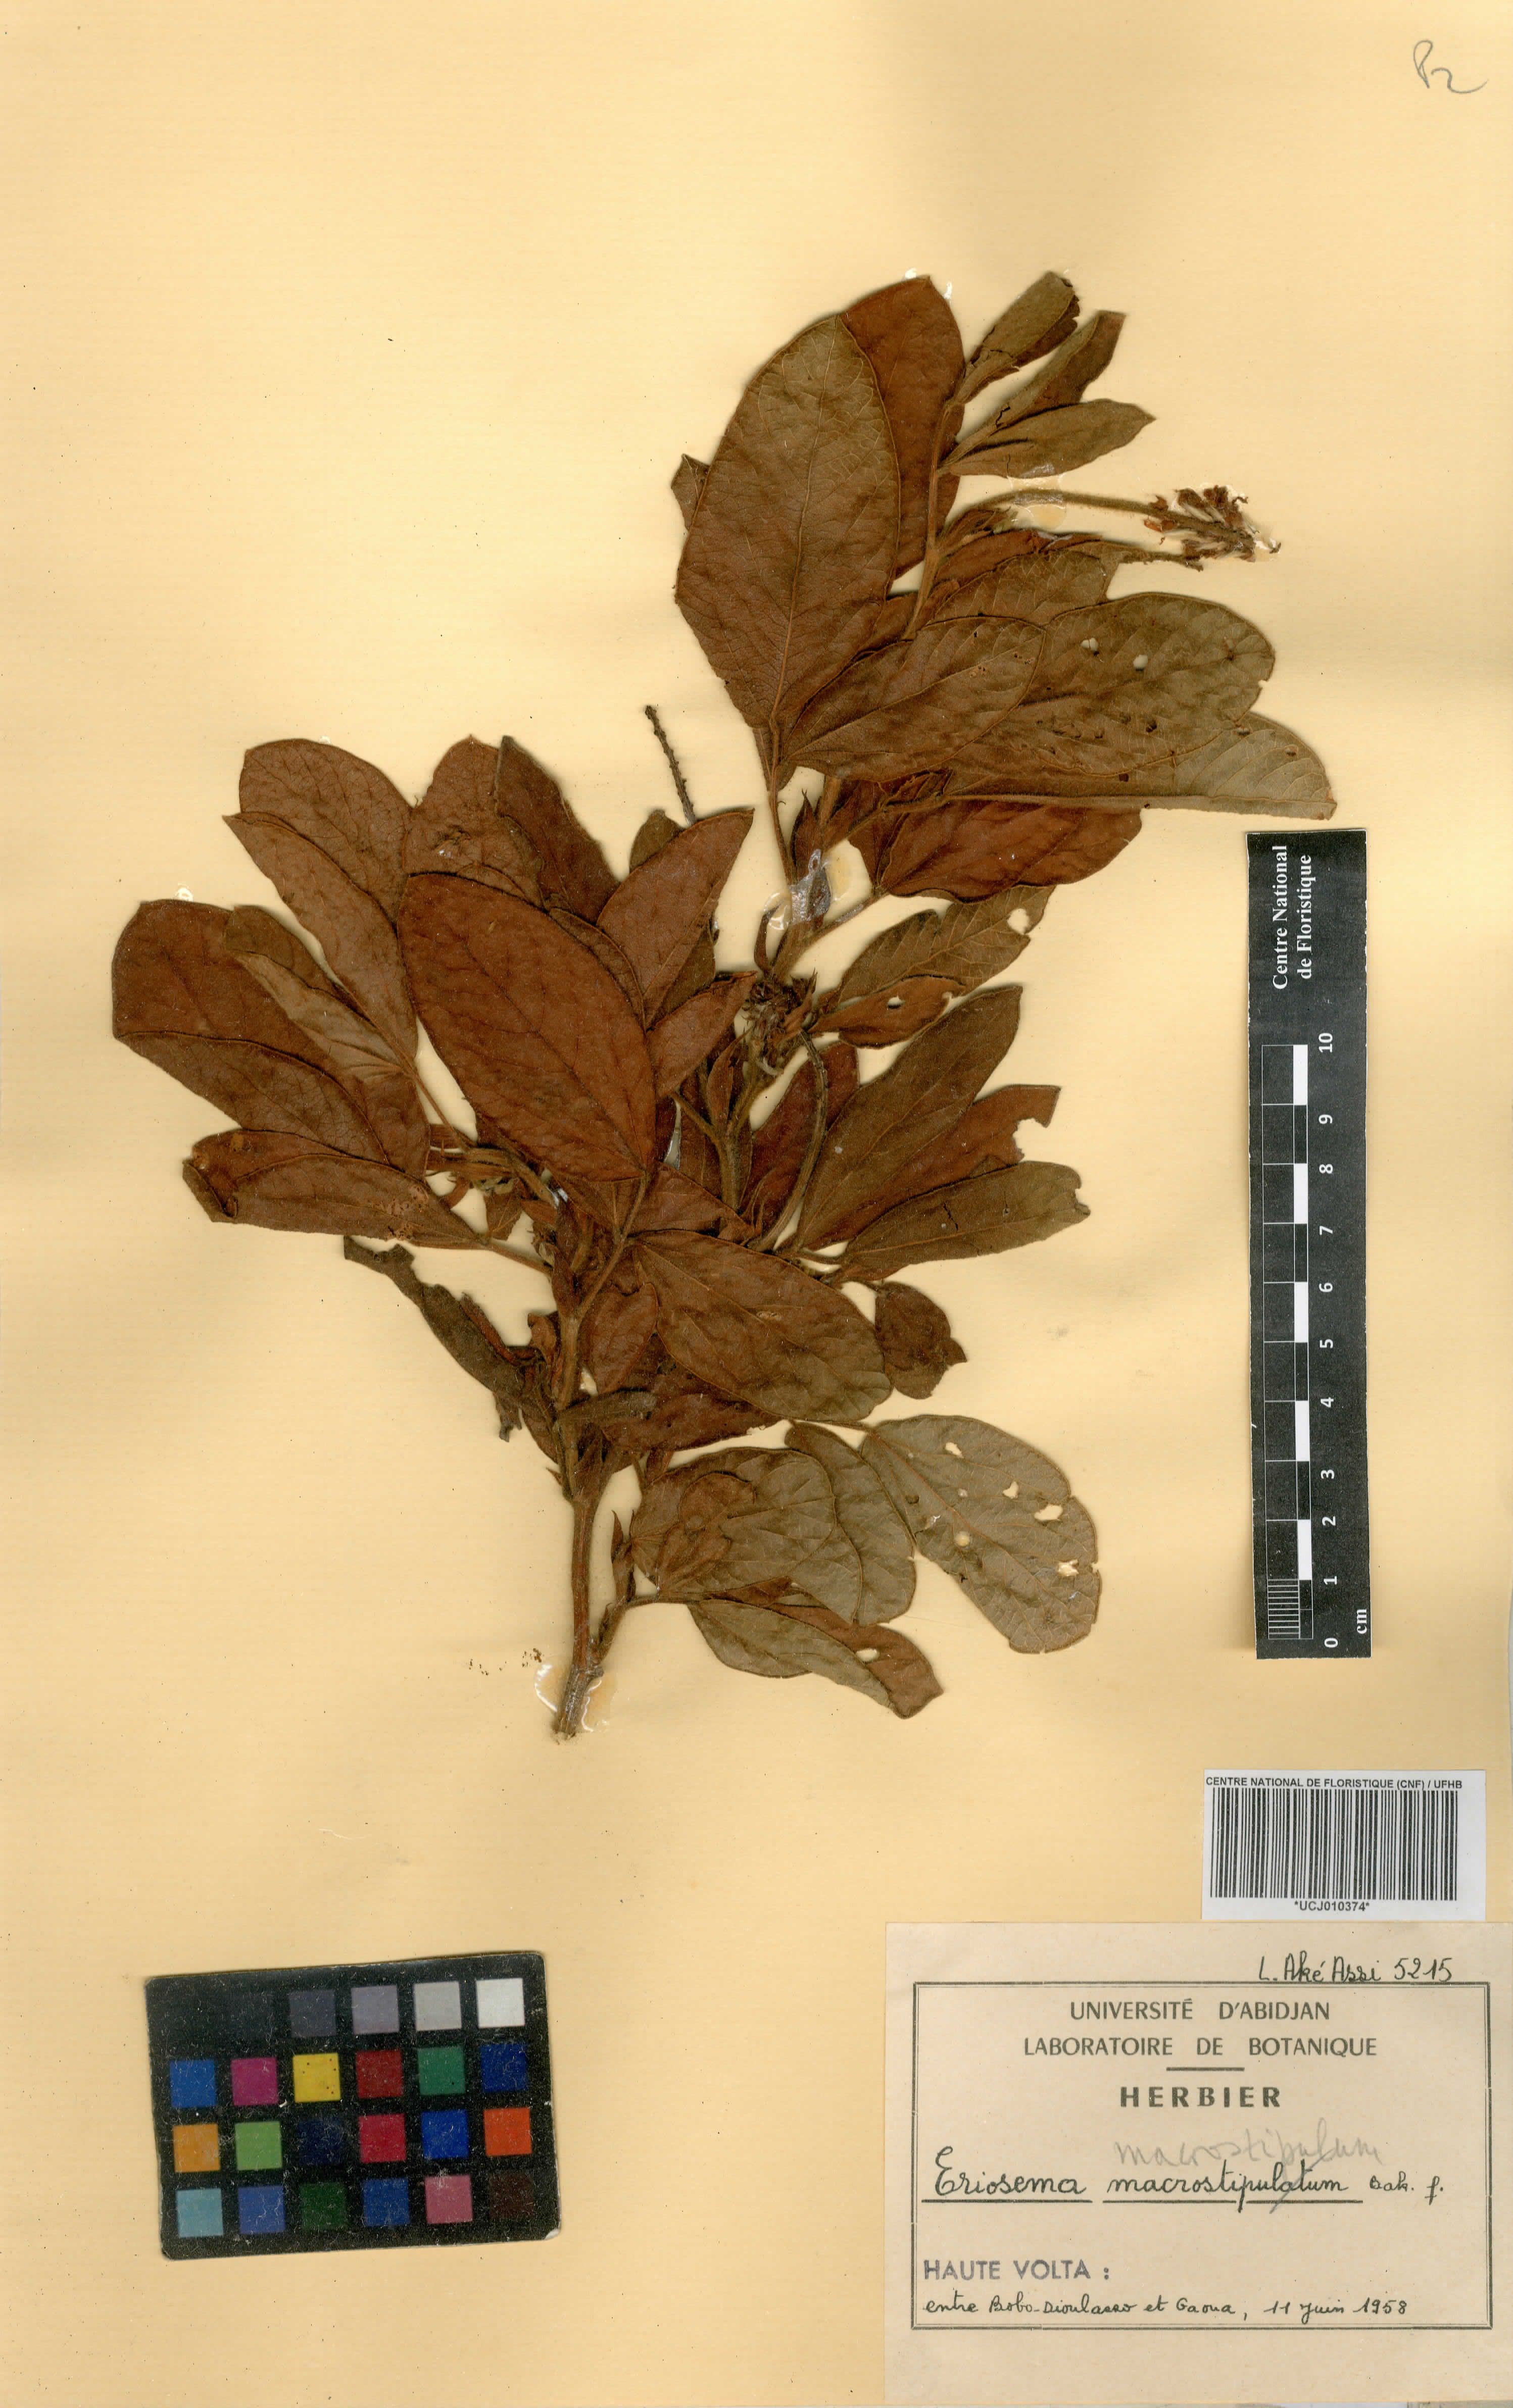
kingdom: Plantae
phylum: Tracheophyta
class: Magnoliopsida
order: Fabales
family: Fabaceae
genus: Eriosema
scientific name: Eriosema macrostipulum
